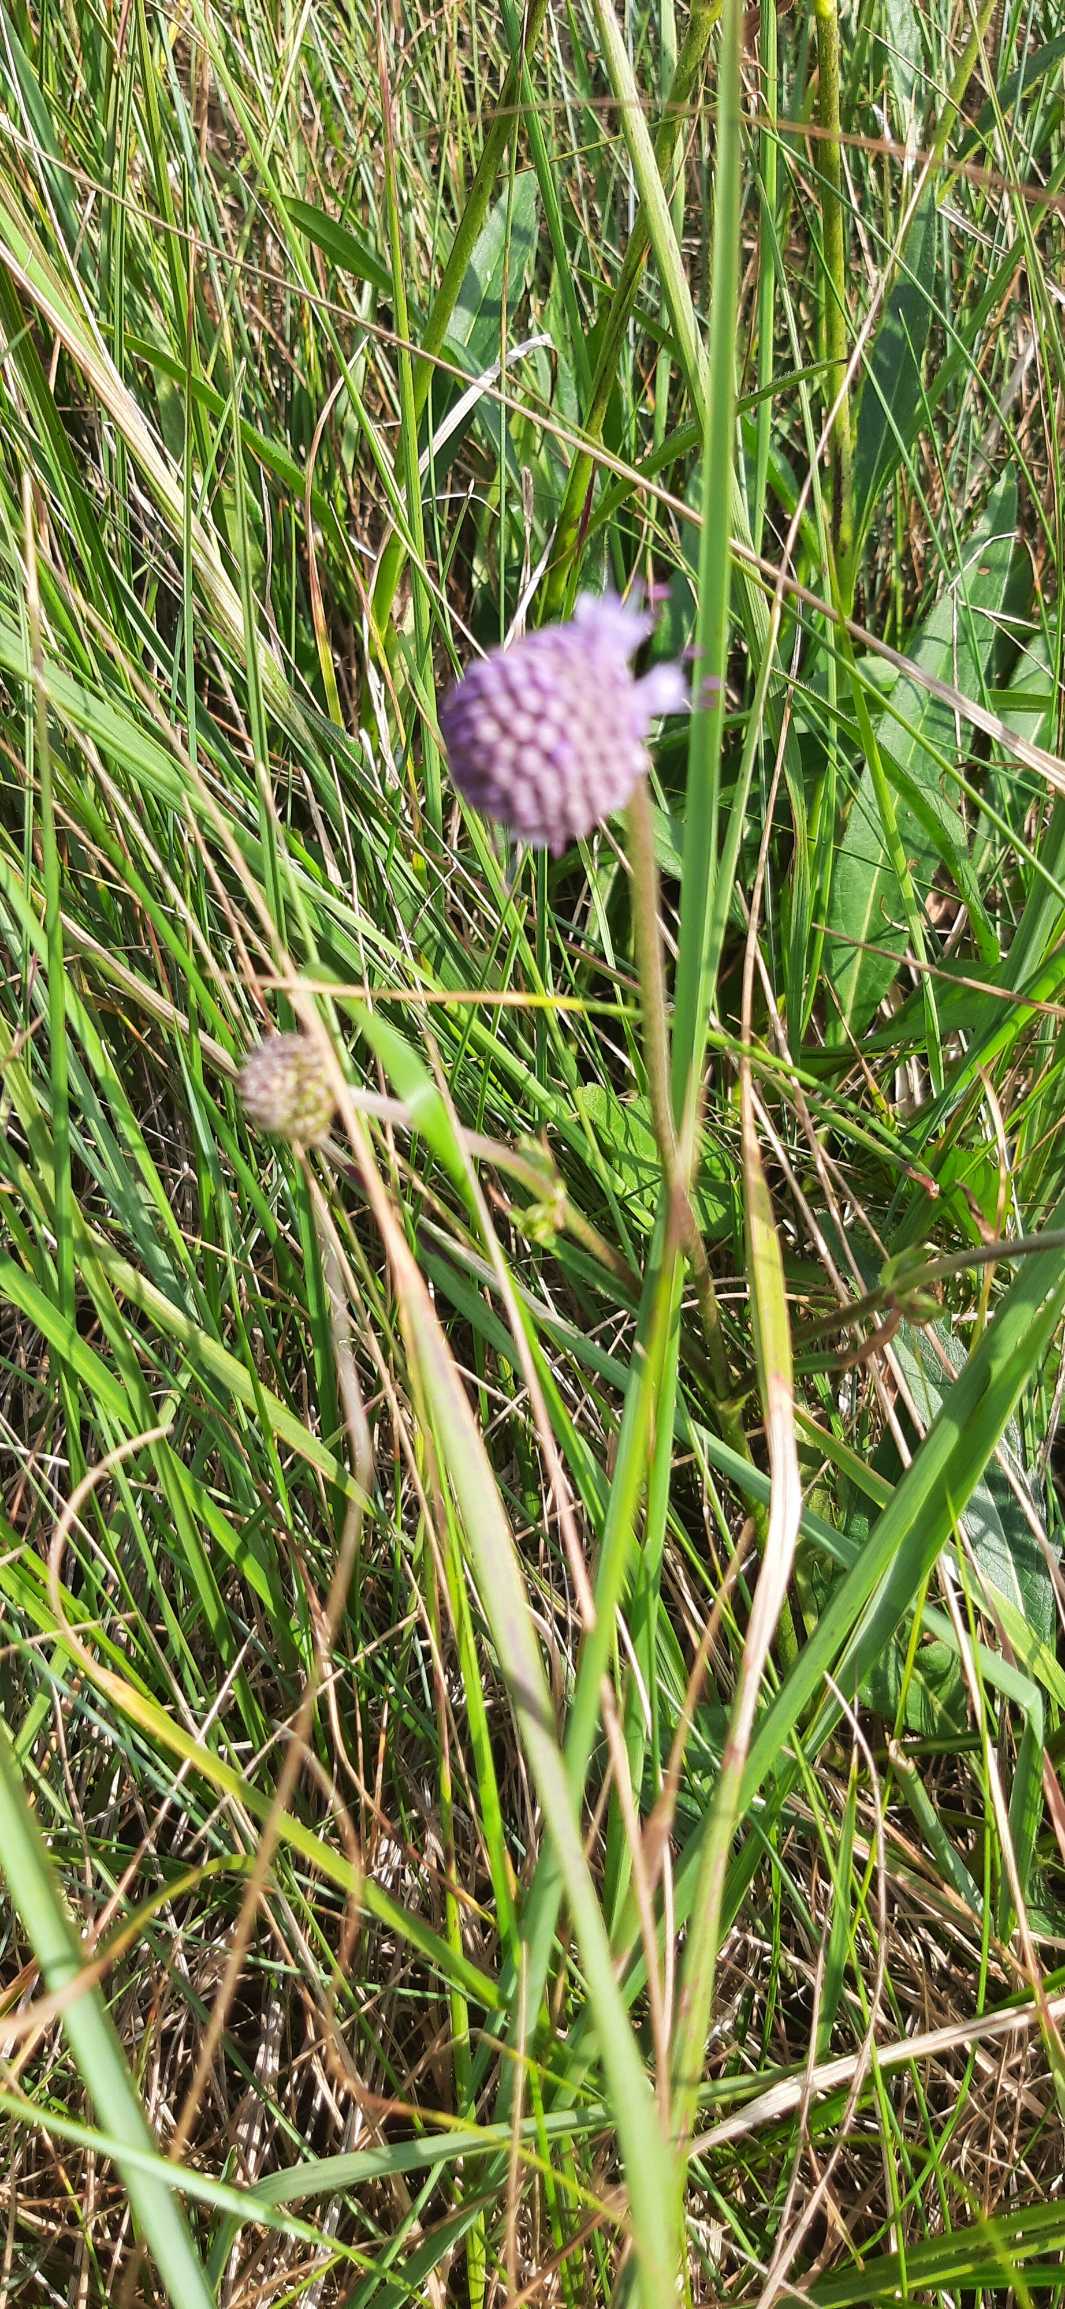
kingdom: Plantae
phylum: Tracheophyta
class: Magnoliopsida
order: Dipsacales
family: Caprifoliaceae
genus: Succisa
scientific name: Succisa pratensis
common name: Djævelsbid
